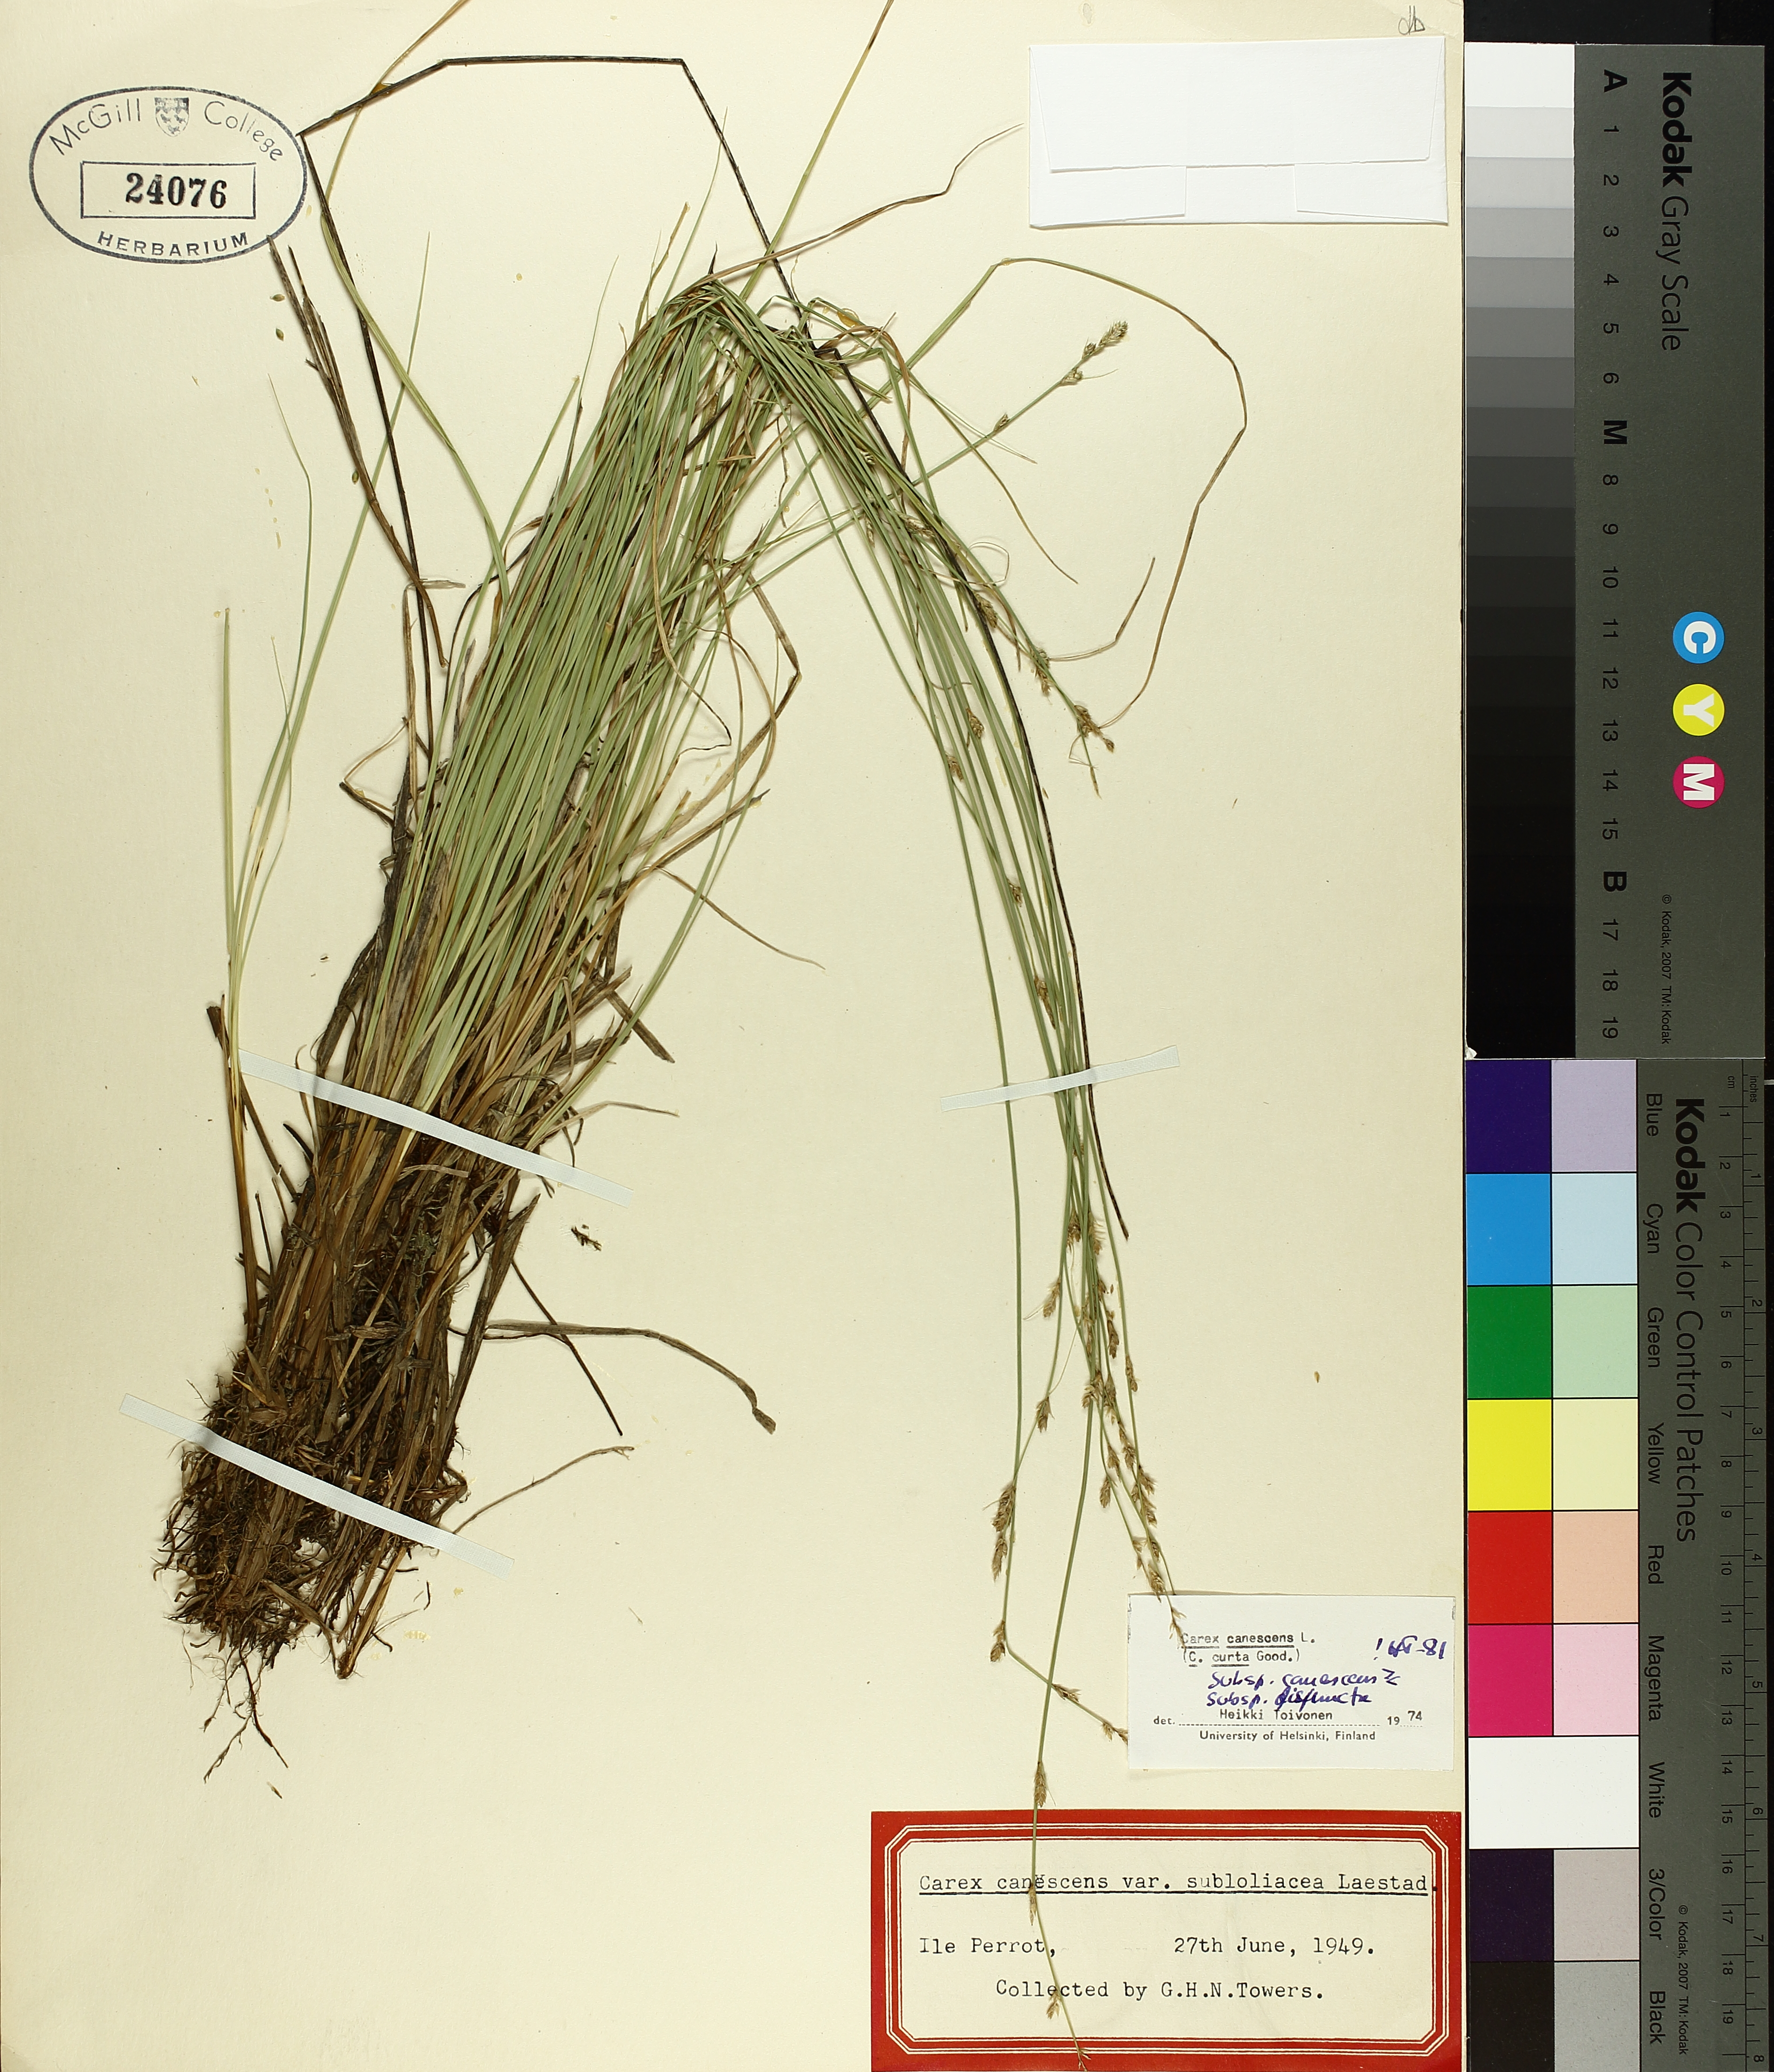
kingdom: Plantae
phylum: Tracheophyta
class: Liliopsida
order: Poales
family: Cyperaceae
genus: Carex
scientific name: Carex canescens
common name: White sedge
